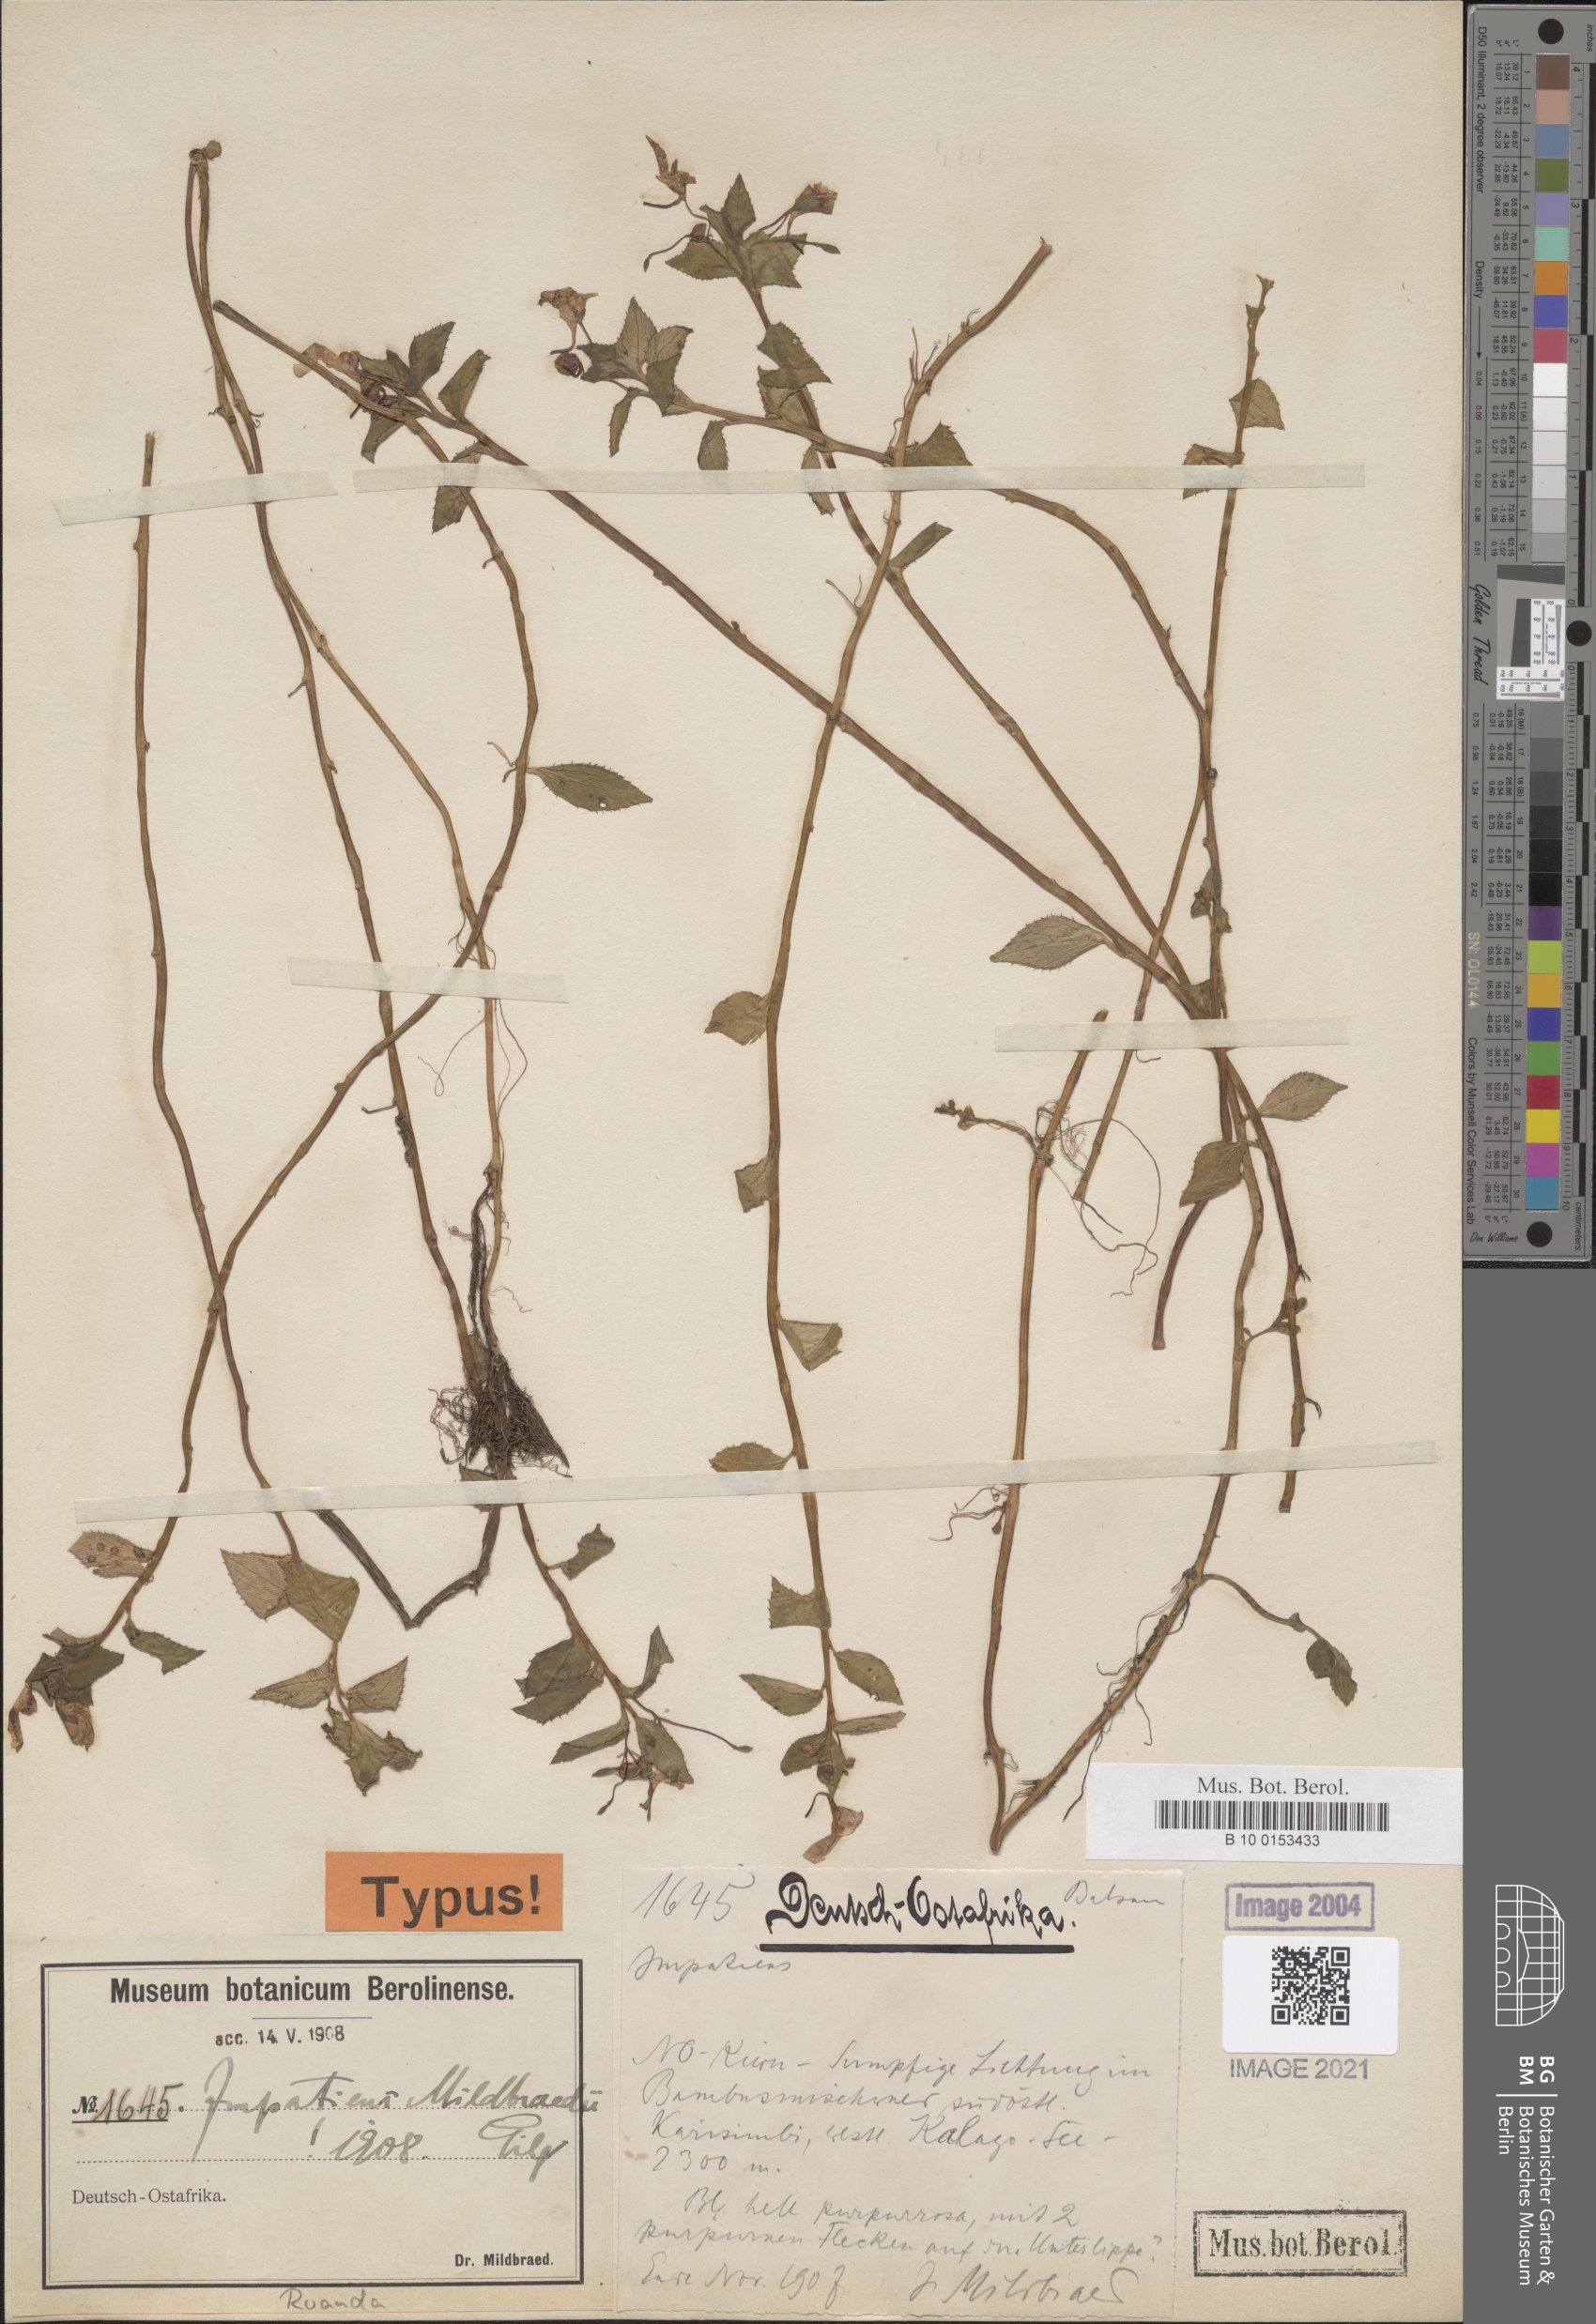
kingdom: Plantae
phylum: Tracheophyta
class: Magnoliopsida
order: Ericales
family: Balsaminaceae
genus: Impatiens
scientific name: Impatiens mildbraedii
